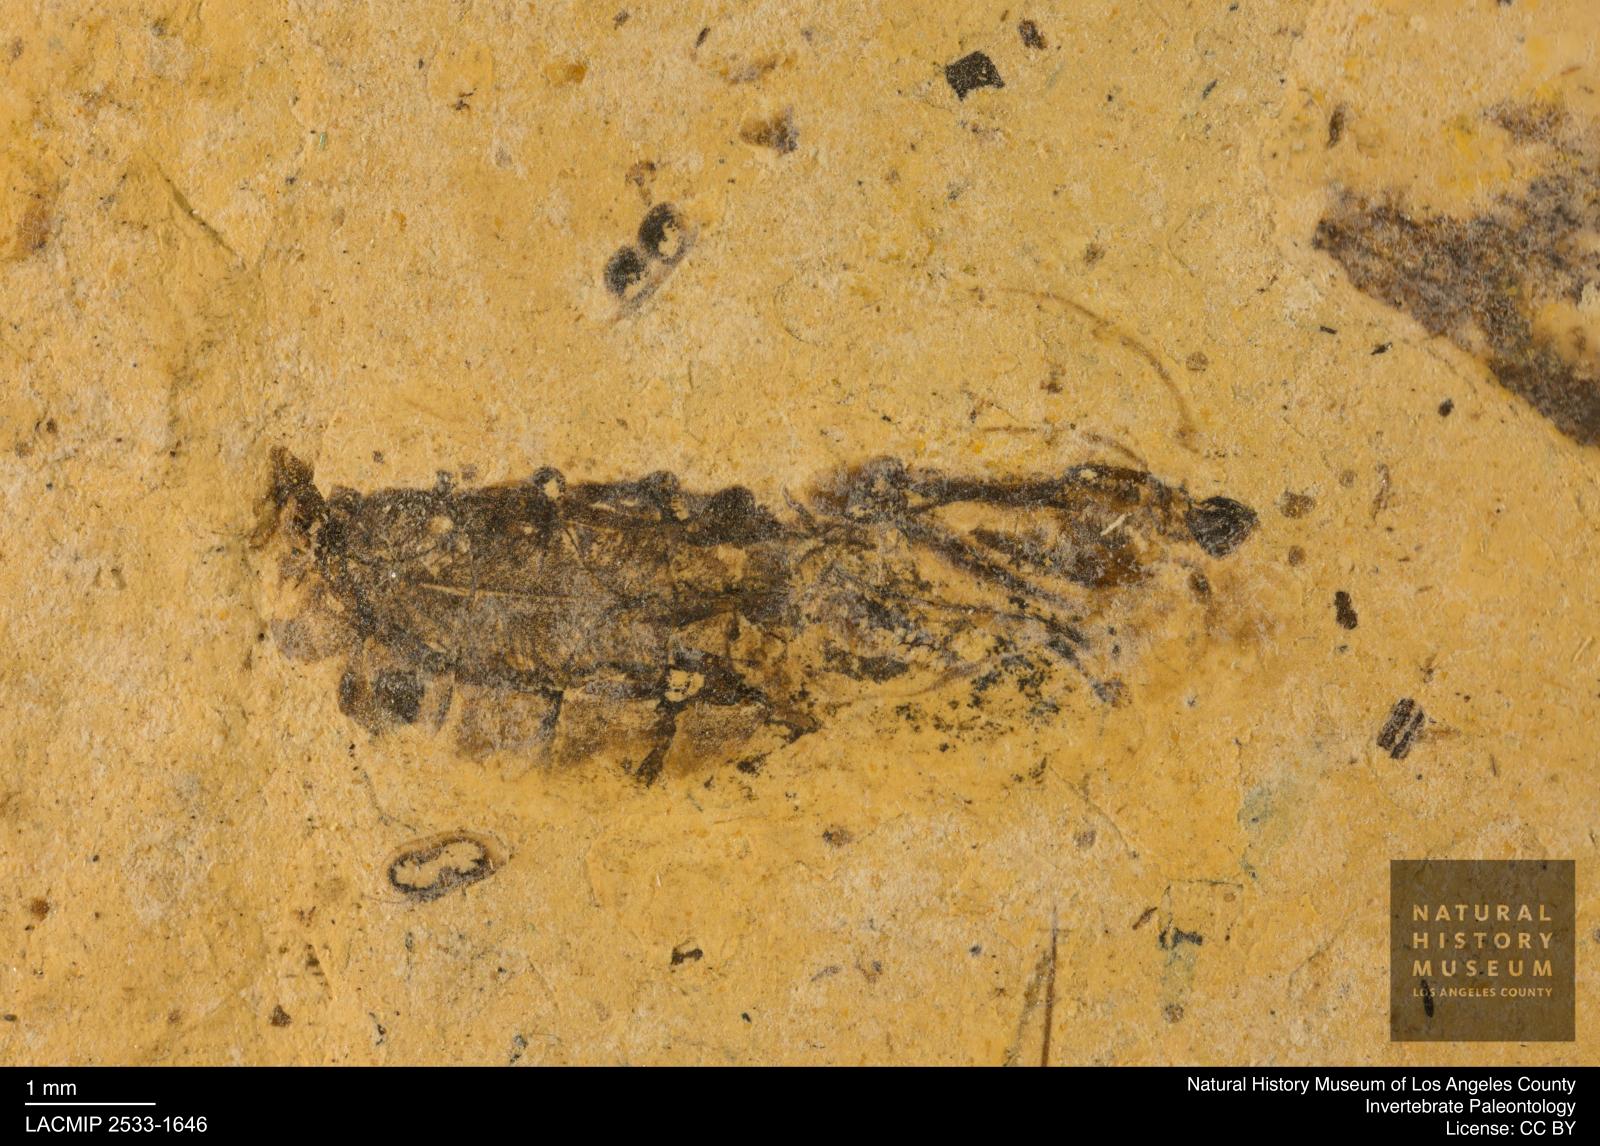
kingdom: Animalia
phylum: Arthropoda
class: Insecta
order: Hemiptera
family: Notonectidae
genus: Notonecta
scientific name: Notonecta
